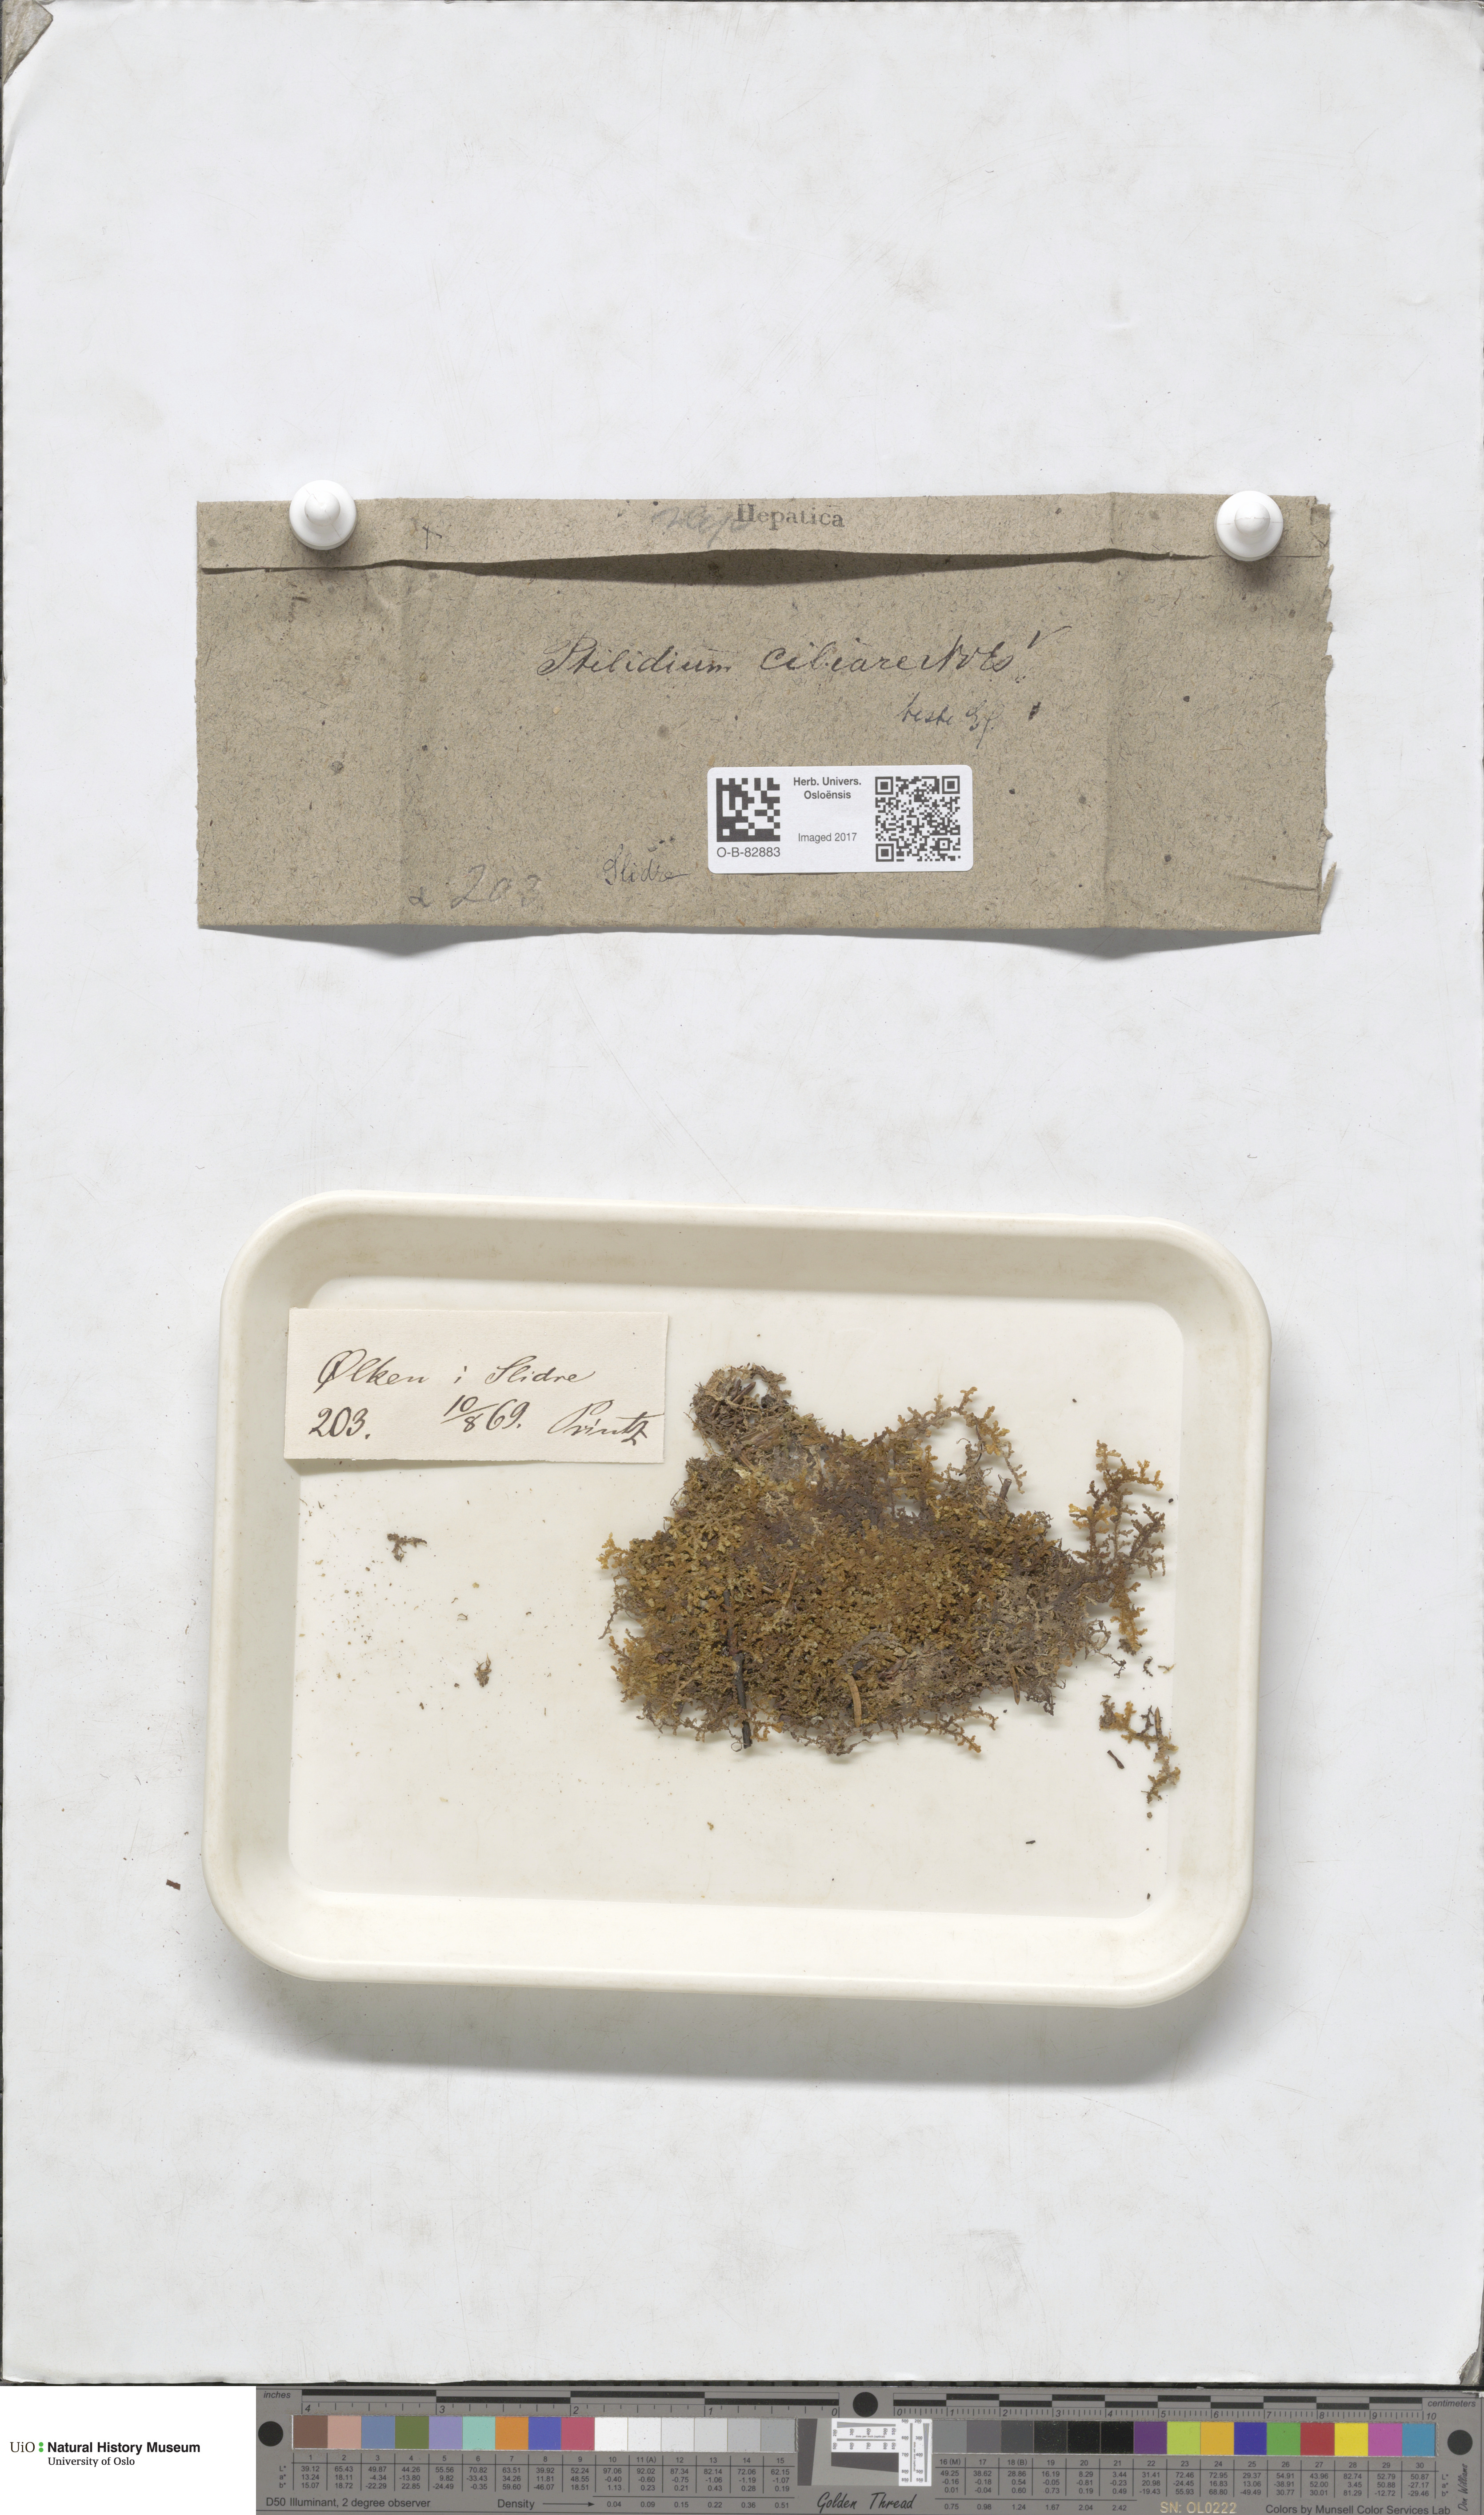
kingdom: Plantae
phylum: Marchantiophyta
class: Jungermanniopsida
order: Ptilidiales
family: Ptilidiaceae
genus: Ptilidium
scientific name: Ptilidium ciliare
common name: Ciliate fringewort
